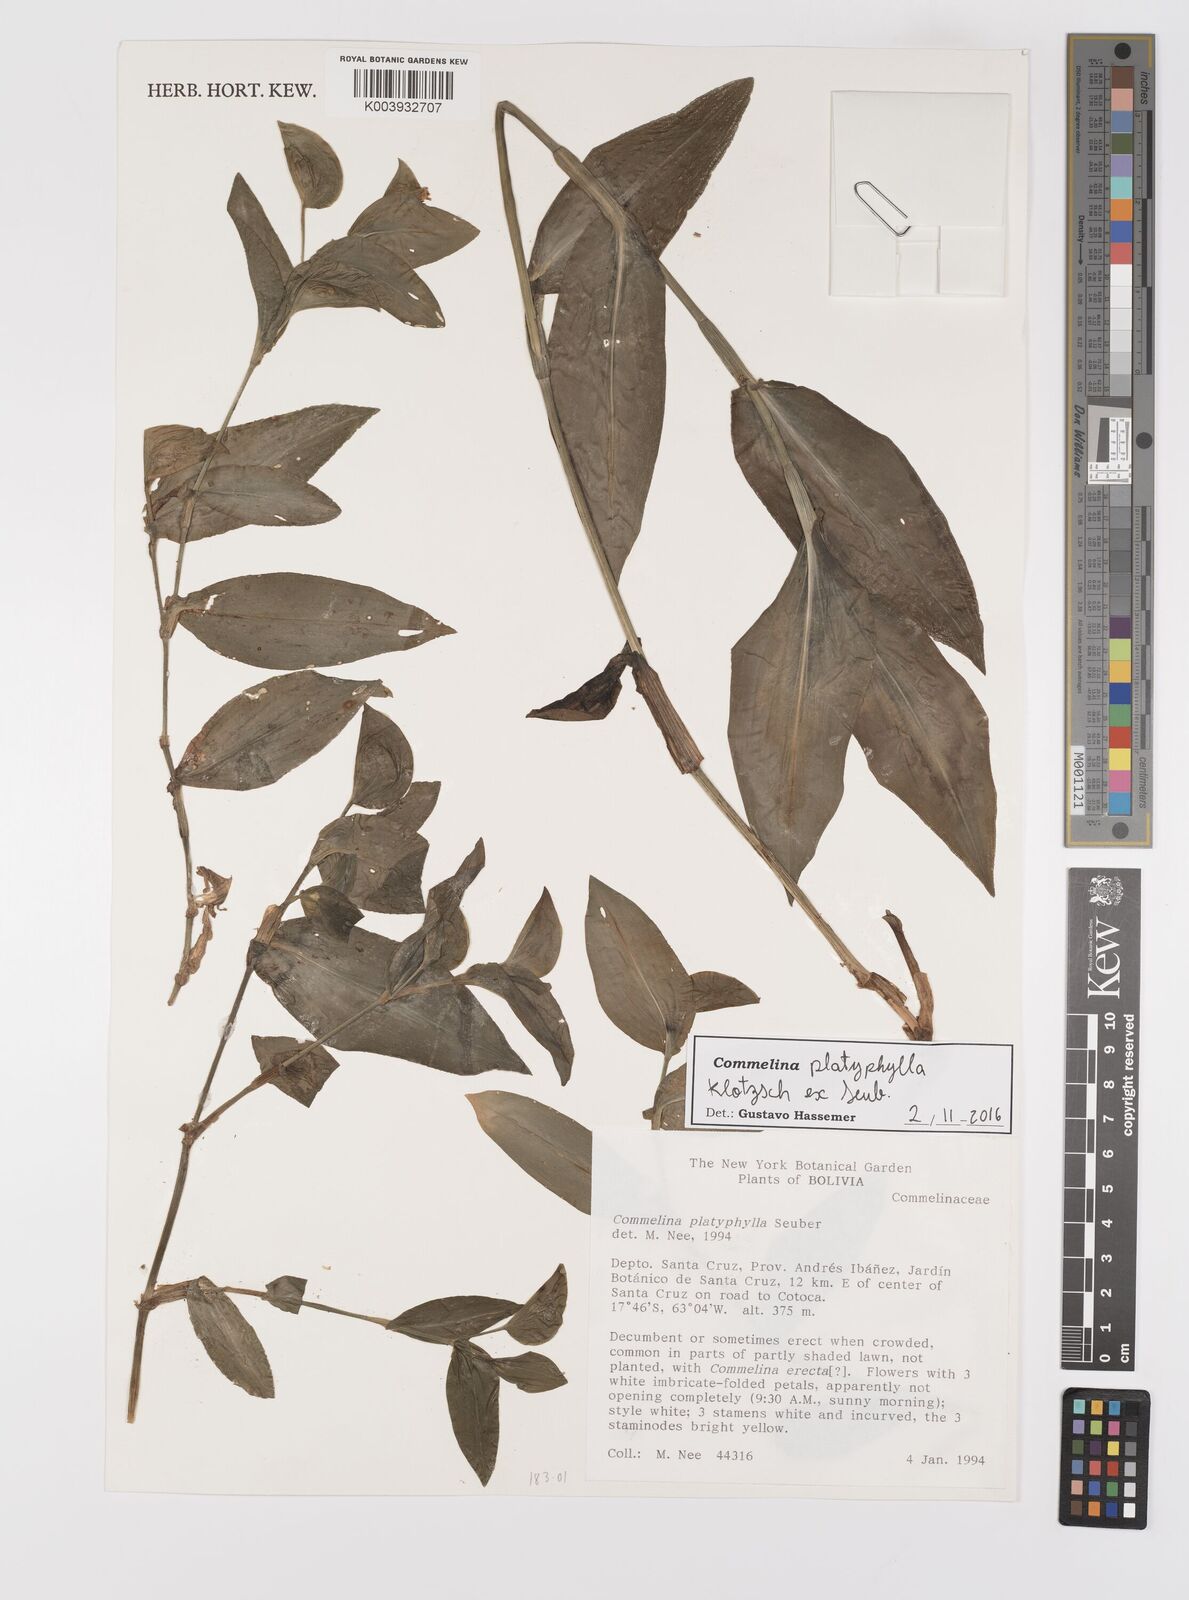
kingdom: Plantae
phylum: Tracheophyta
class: Liliopsida
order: Commelinales
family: Commelinaceae
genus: Commelina
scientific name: Commelina platyphylla
